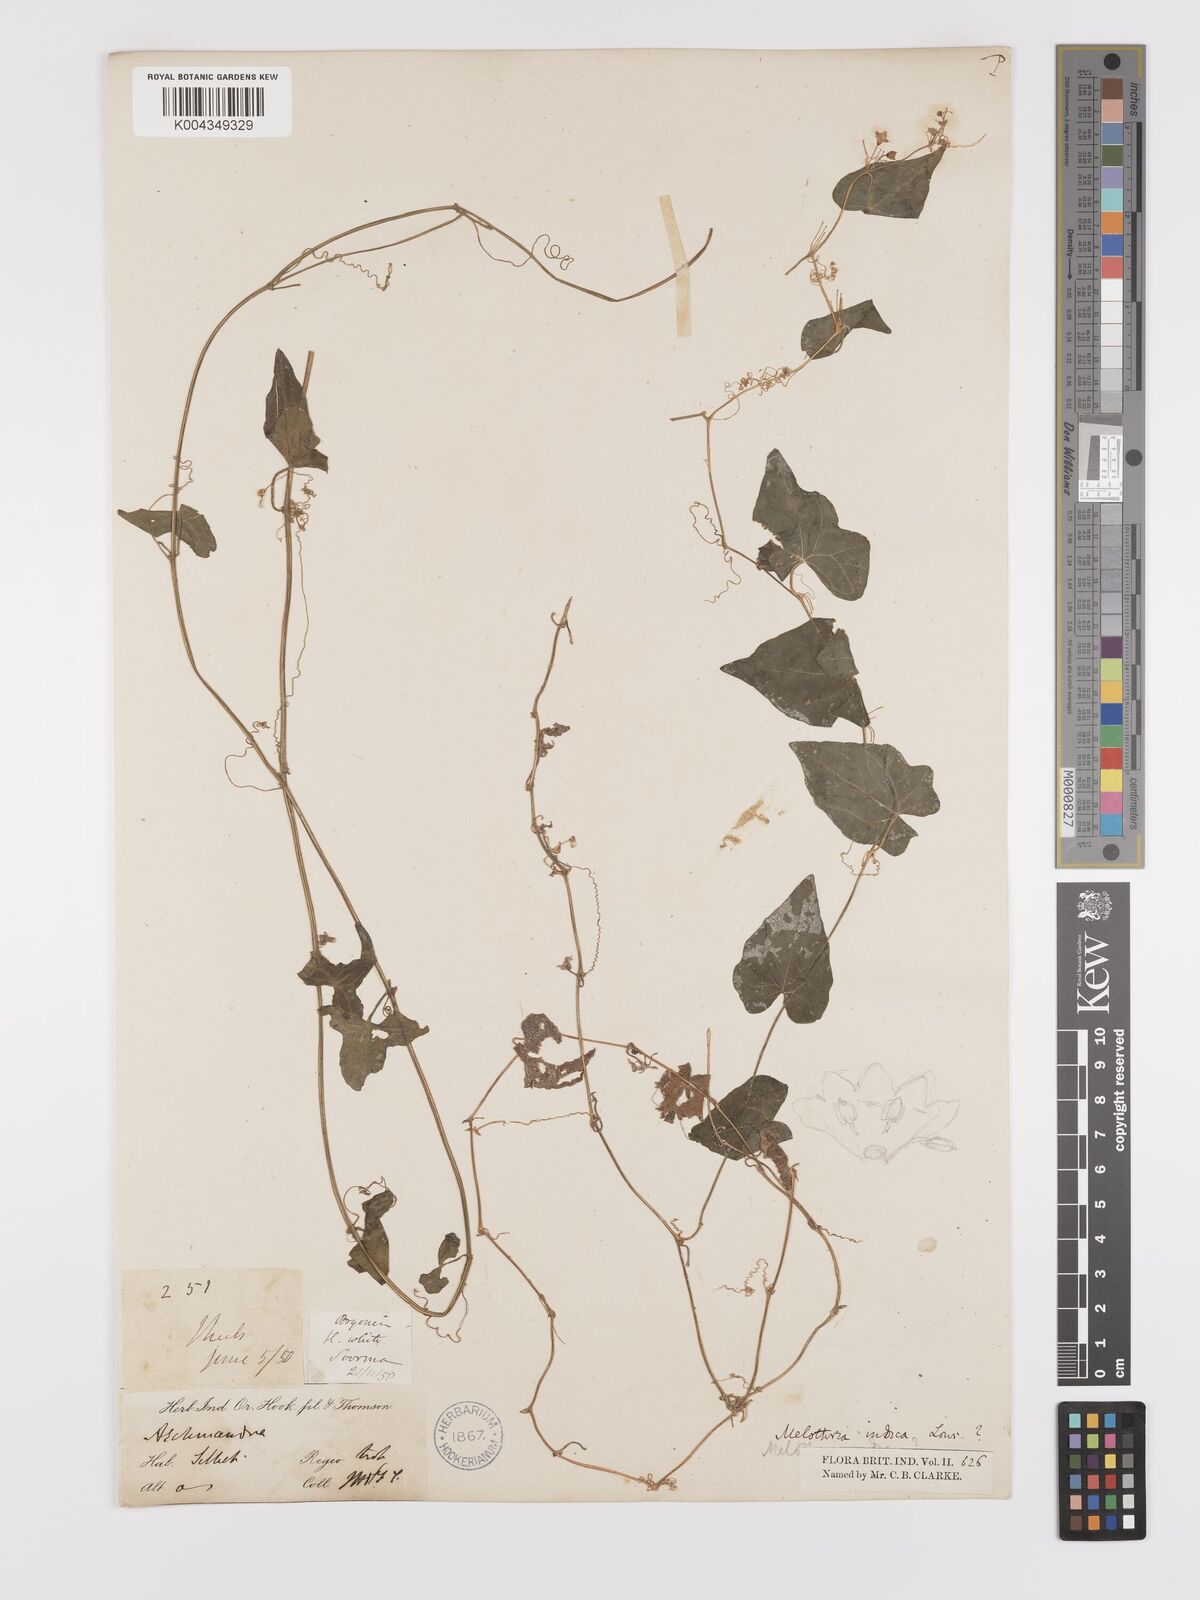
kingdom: Plantae
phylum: Tracheophyta
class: Magnoliopsida
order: Cucurbitales
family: Cucurbitaceae
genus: Zehneria
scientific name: Zehneria odorata
